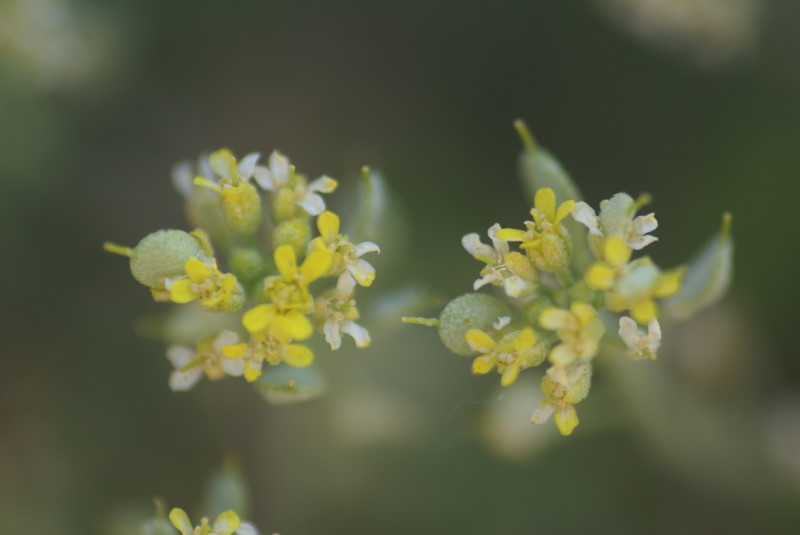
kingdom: Plantae
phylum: Tracheophyta
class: Magnoliopsida
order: Brassicales
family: Brassicaceae
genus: Alyssum
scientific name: Alyssum
